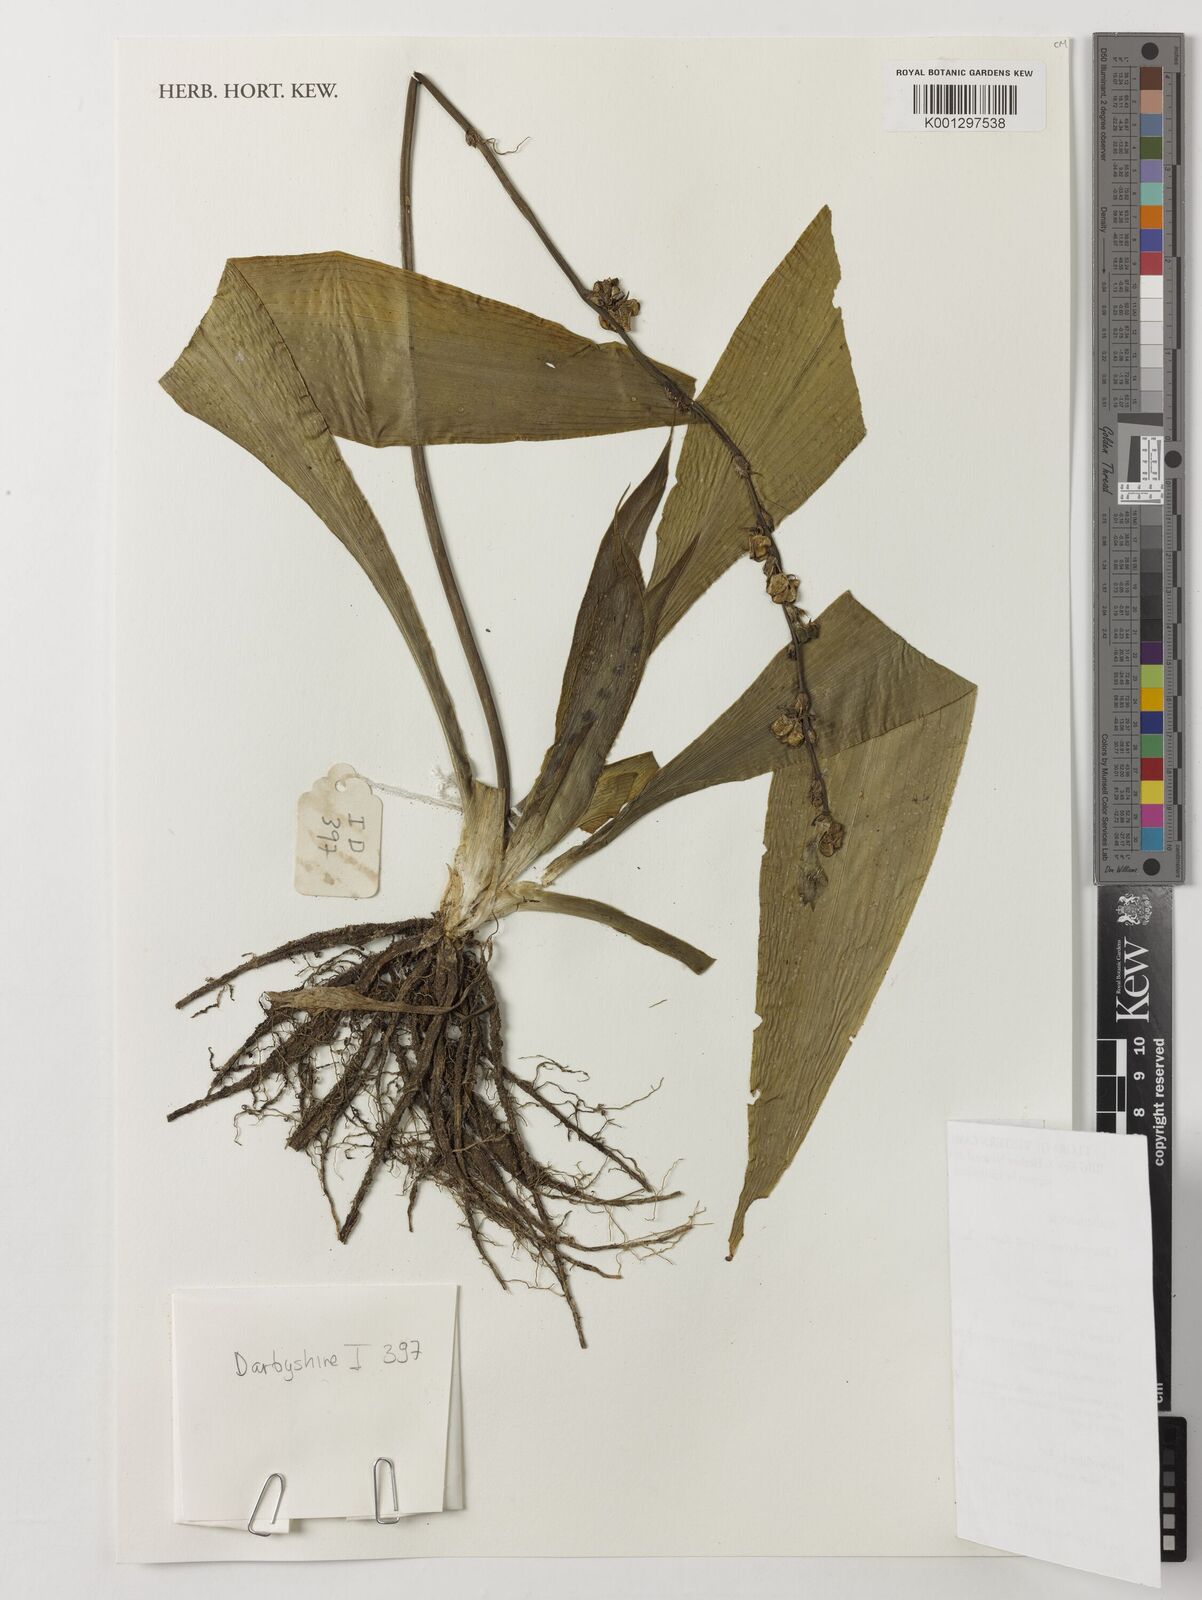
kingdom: Plantae
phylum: Tracheophyta
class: Liliopsida
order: Asparagales
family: Asparagaceae
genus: Chlorophytum
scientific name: Chlorophytum sparsiflorum
